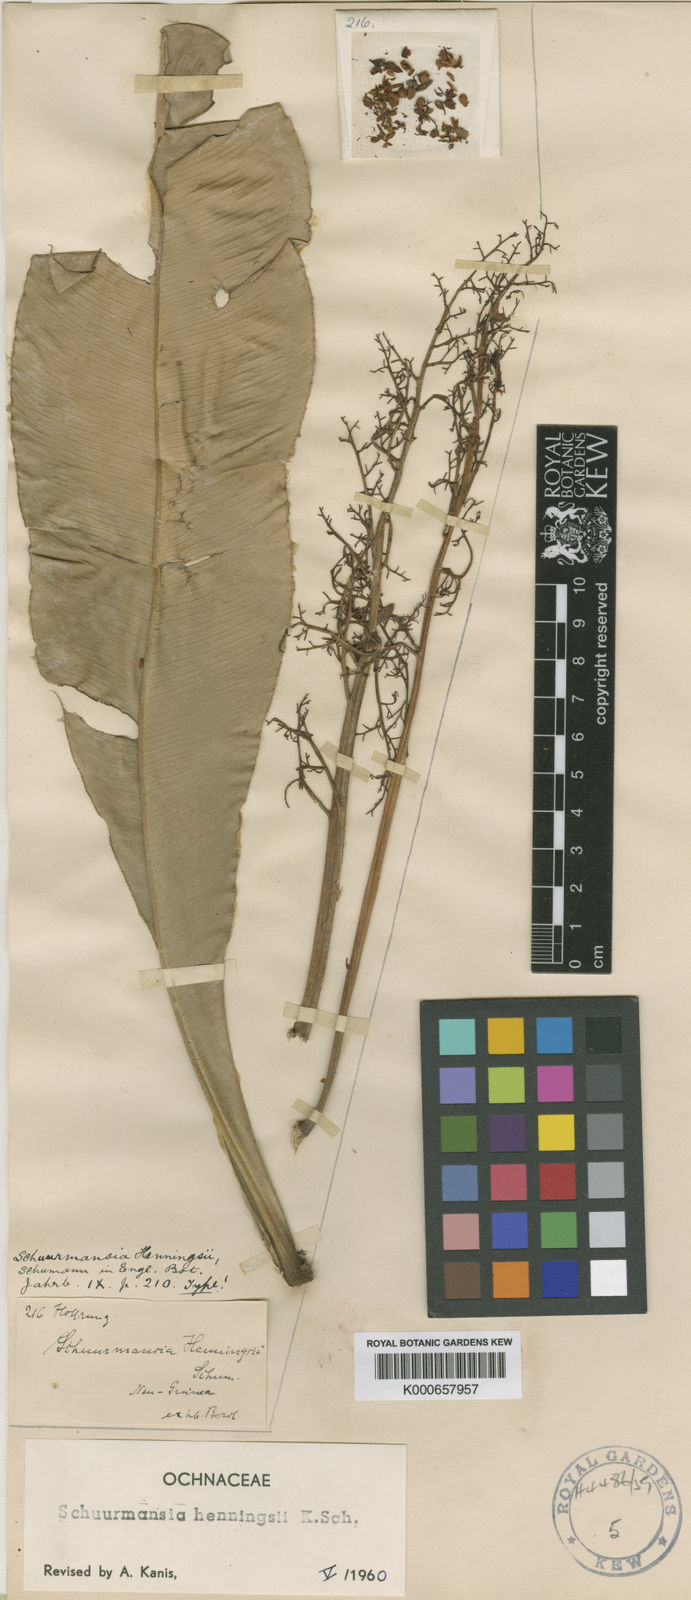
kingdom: Plantae
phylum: Tracheophyta
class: Magnoliopsida
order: Malpighiales
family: Ochnaceae
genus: Schuurmansia
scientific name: Schuurmansia henningsii
